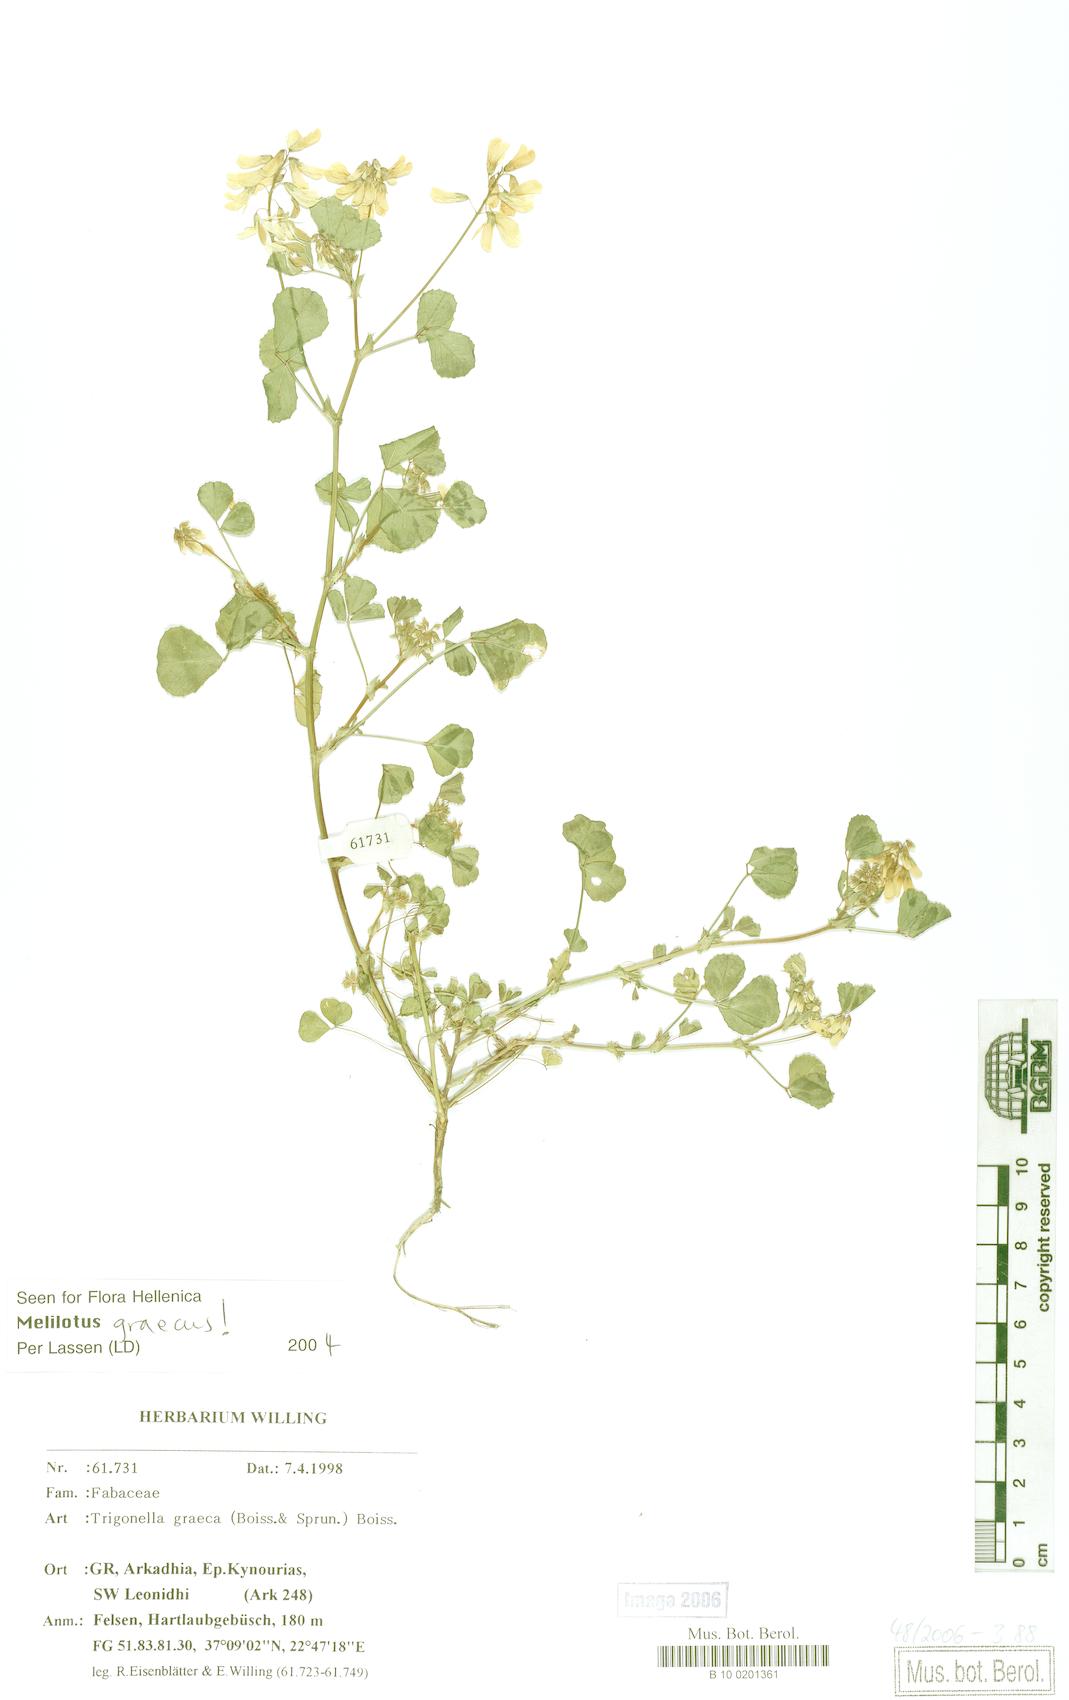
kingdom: Plantae
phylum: Tracheophyta
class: Magnoliopsida
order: Fabales
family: Fabaceae
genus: Trigonella
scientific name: Trigonella graeca
